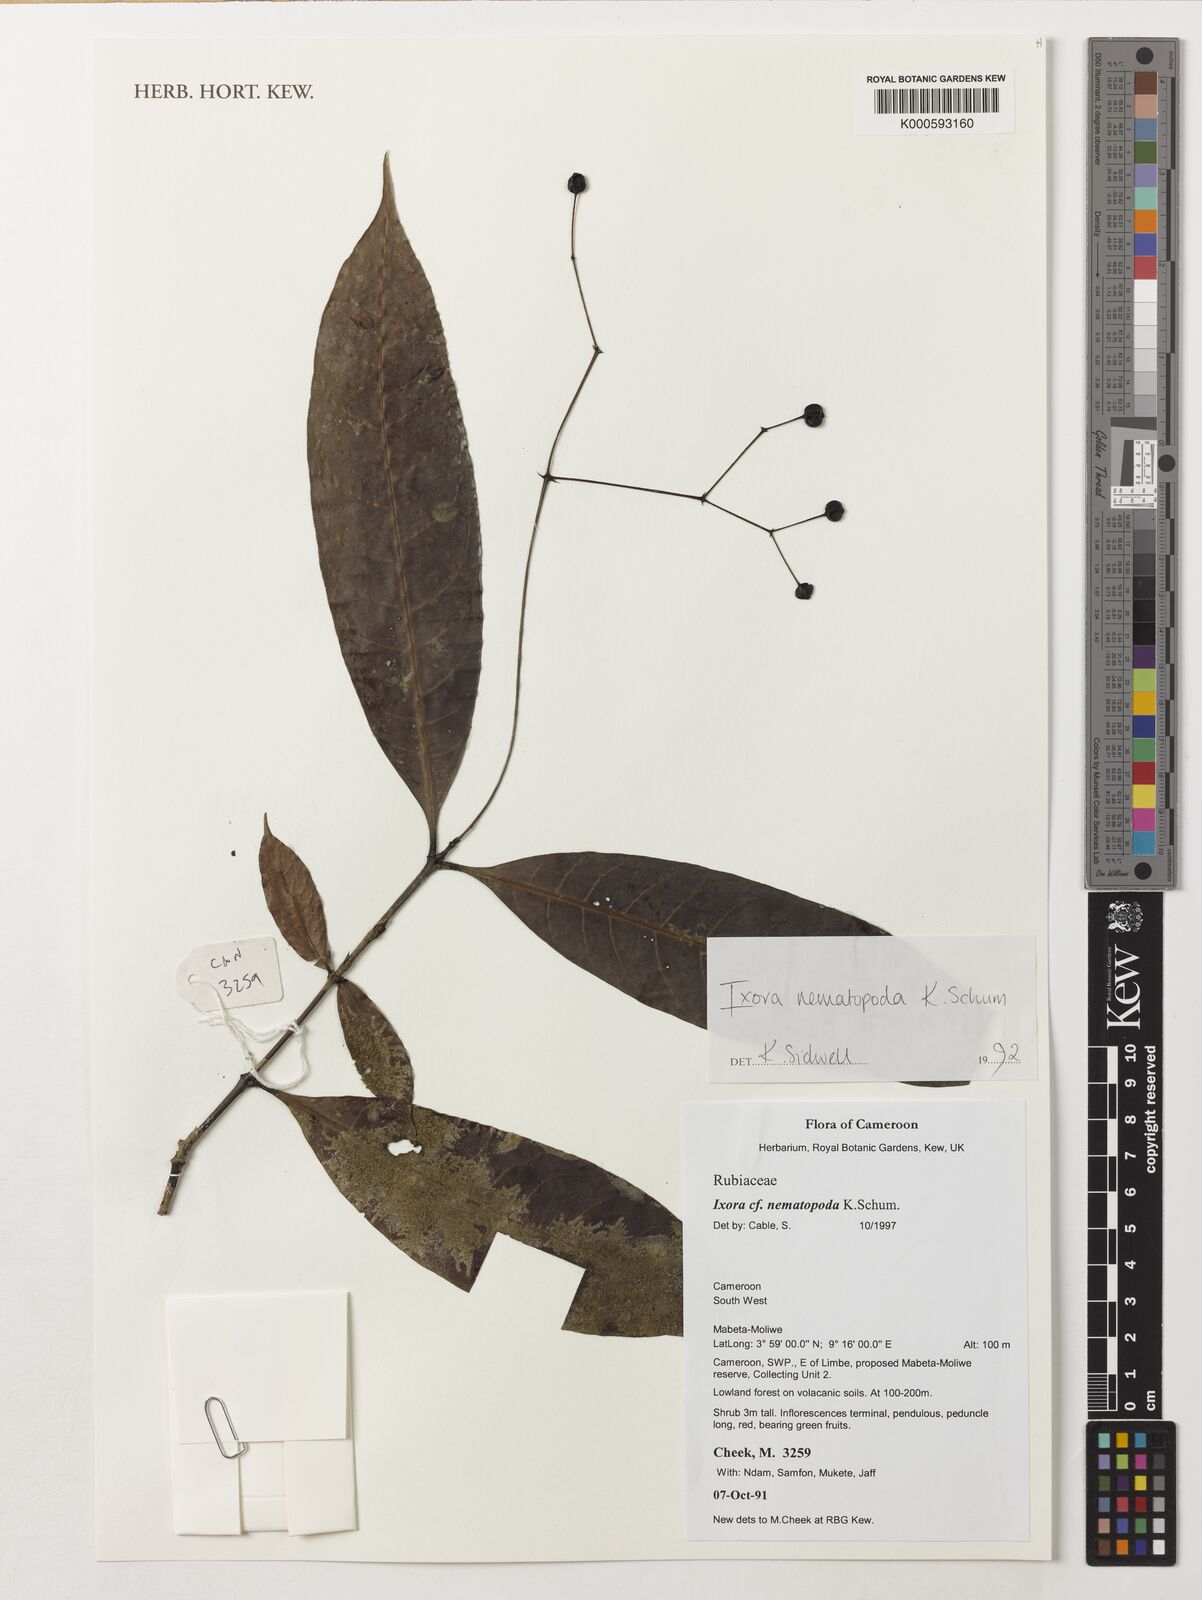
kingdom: Plantae
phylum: Tracheophyta
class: Magnoliopsida
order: Gentianales
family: Rubiaceae
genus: Ixora
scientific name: Ixora nematopoda
